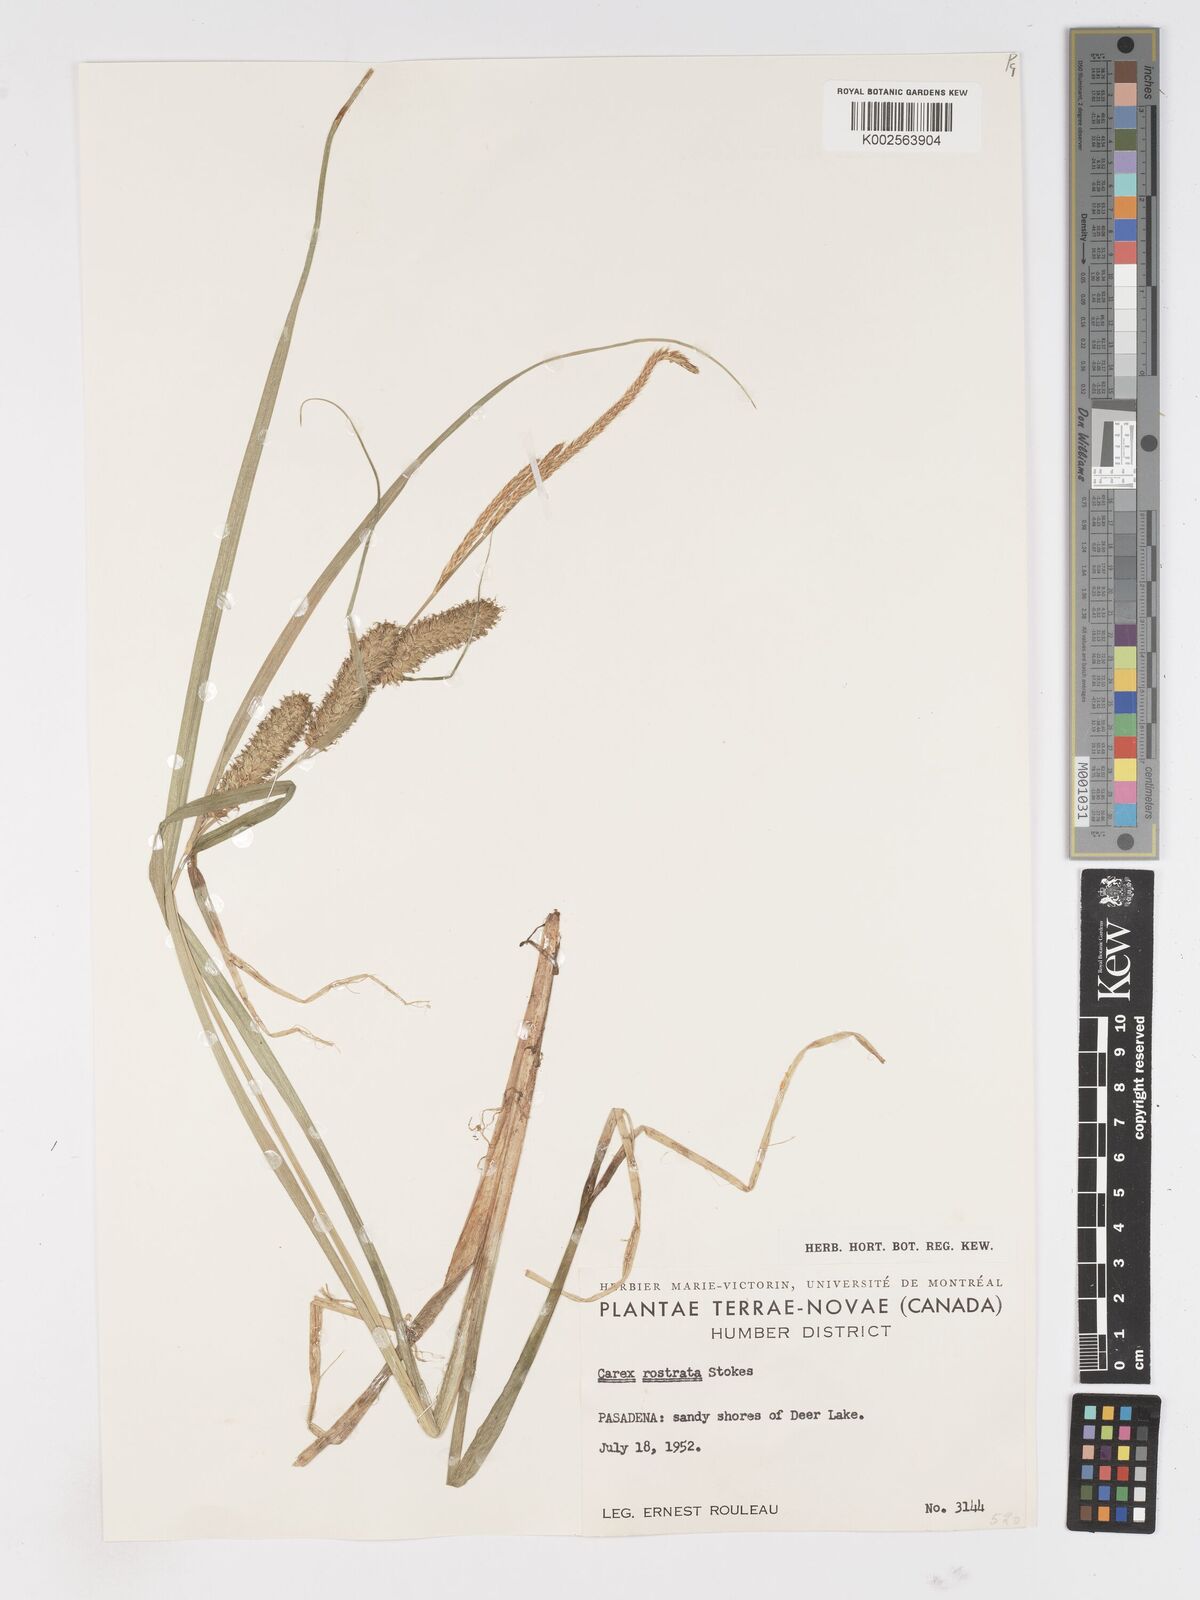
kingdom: Plantae
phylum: Tracheophyta
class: Liliopsida
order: Poales
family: Cyperaceae
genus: Carex
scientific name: Carex rostrata
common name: Bottle sedge
